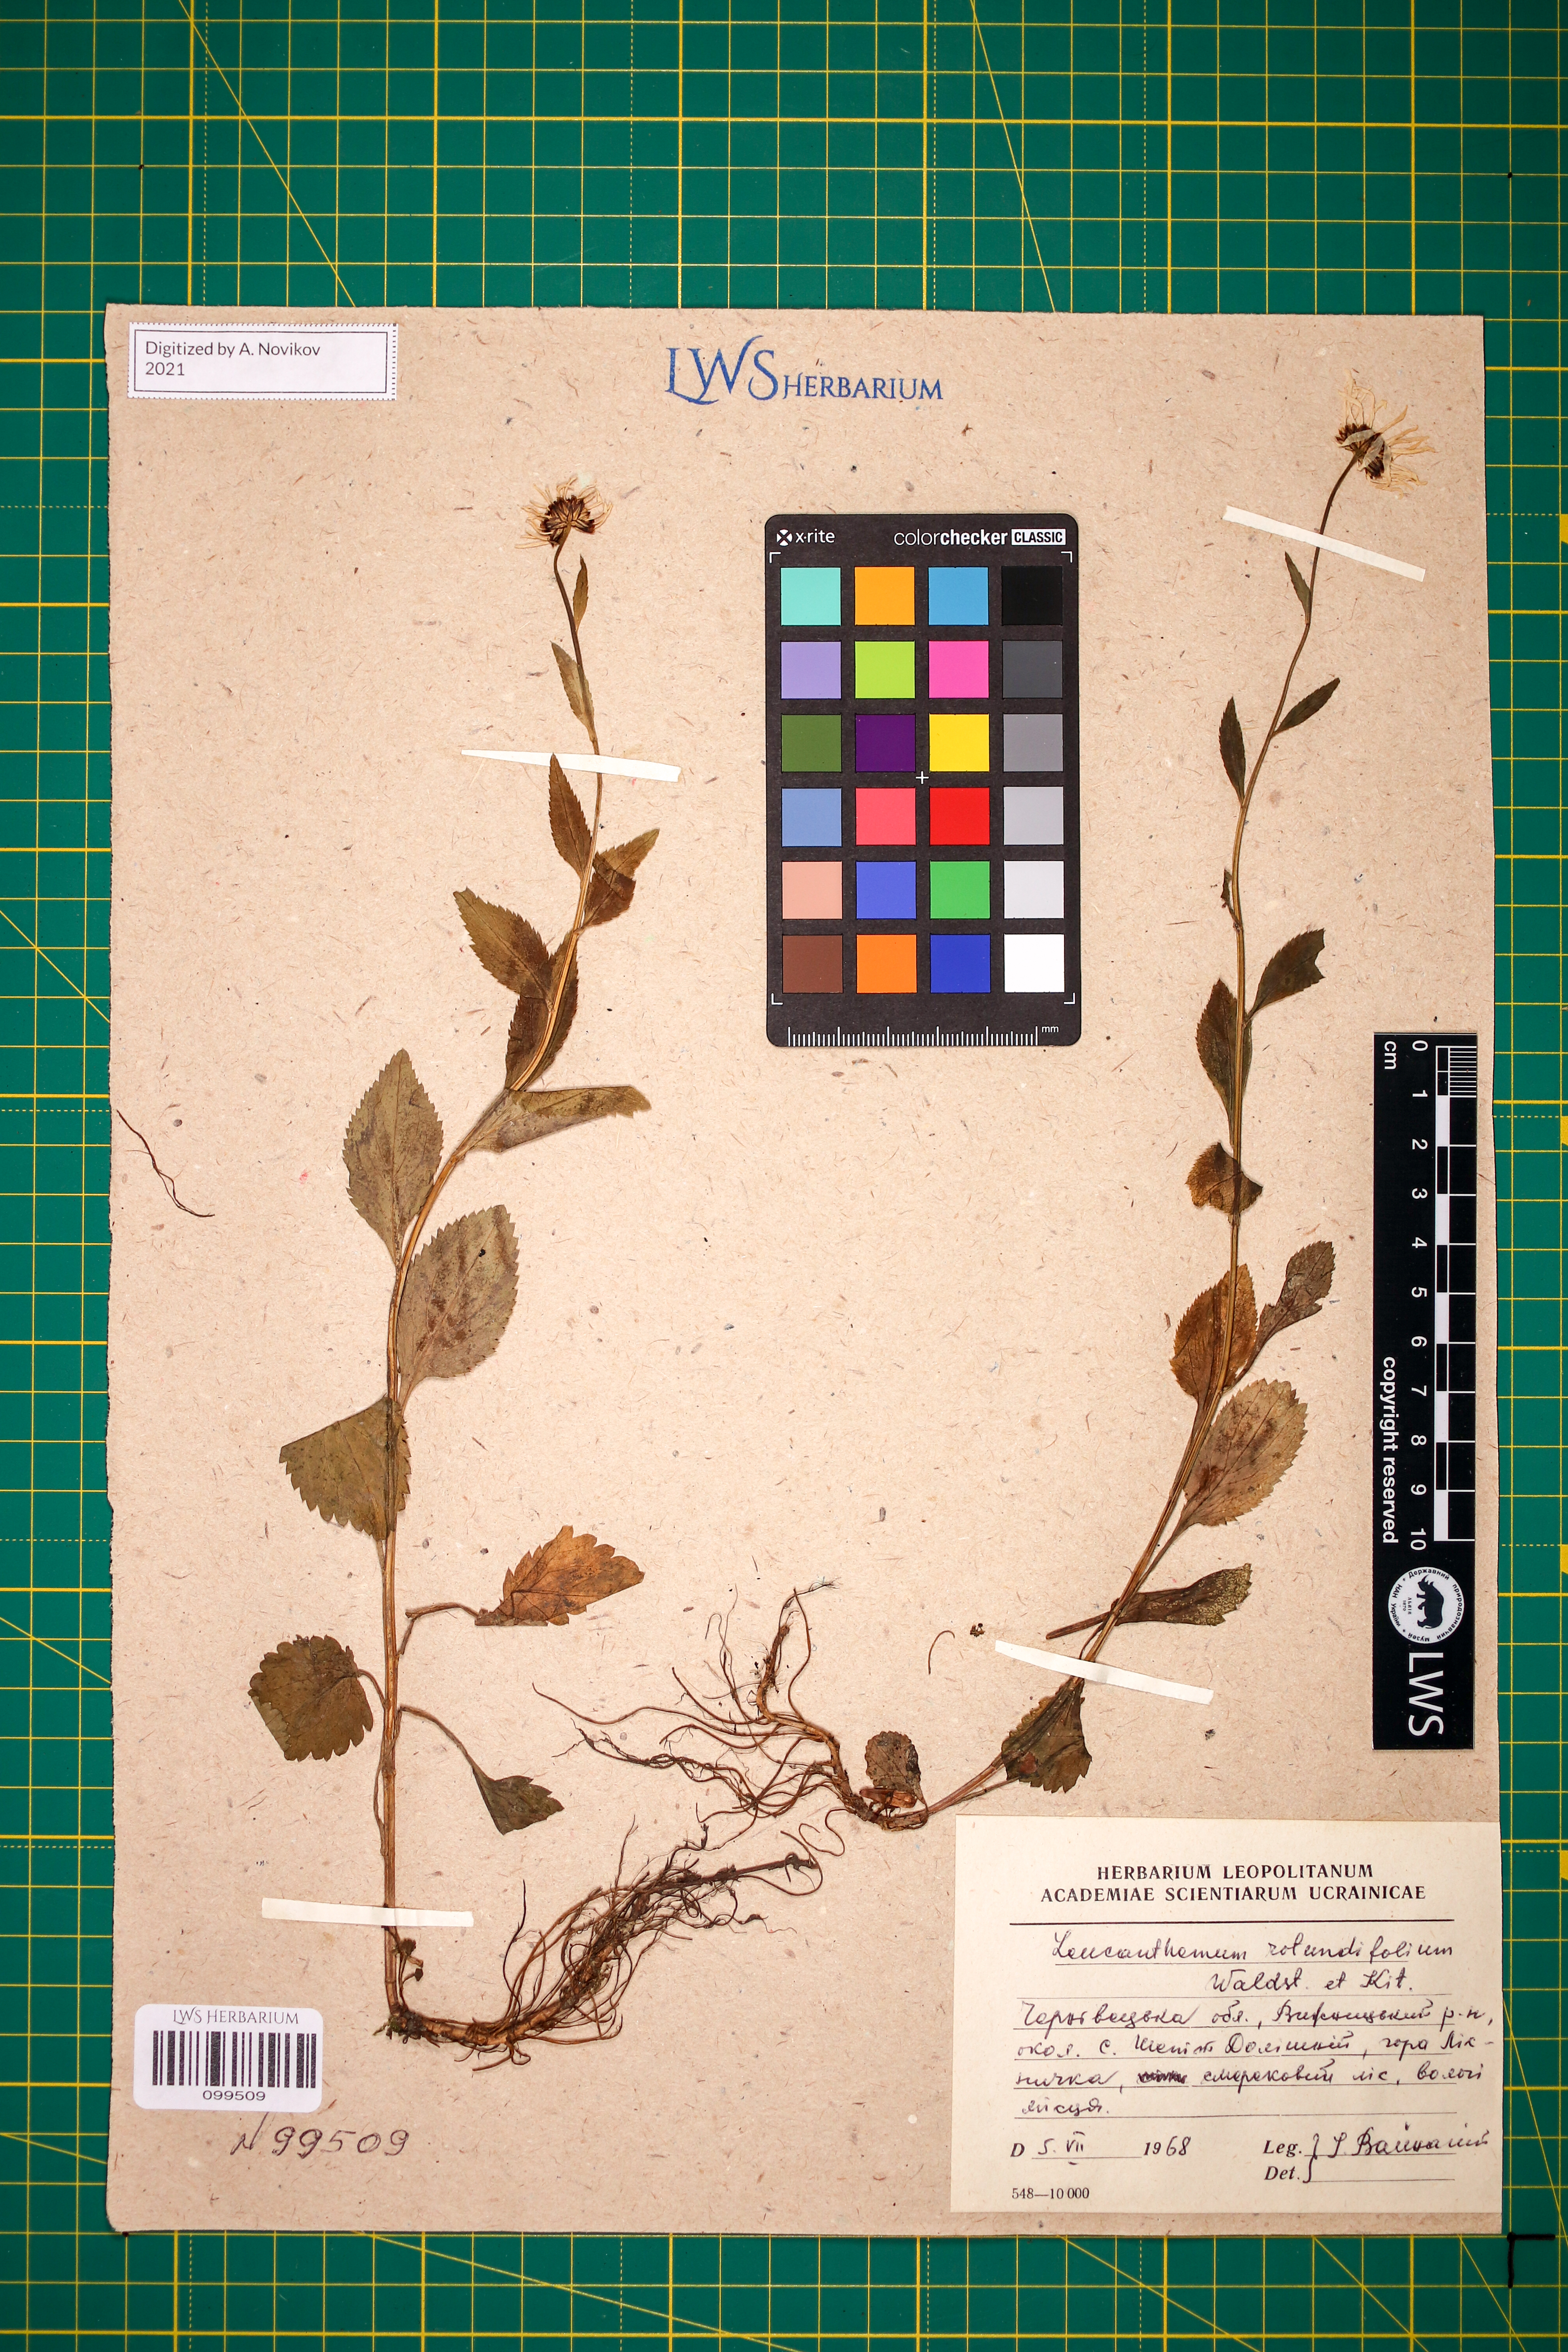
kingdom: Plantae
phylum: Tracheophyta
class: Magnoliopsida
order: Asterales
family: Asteraceae
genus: Leucanthemum
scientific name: Leucanthemum rotundifolium
